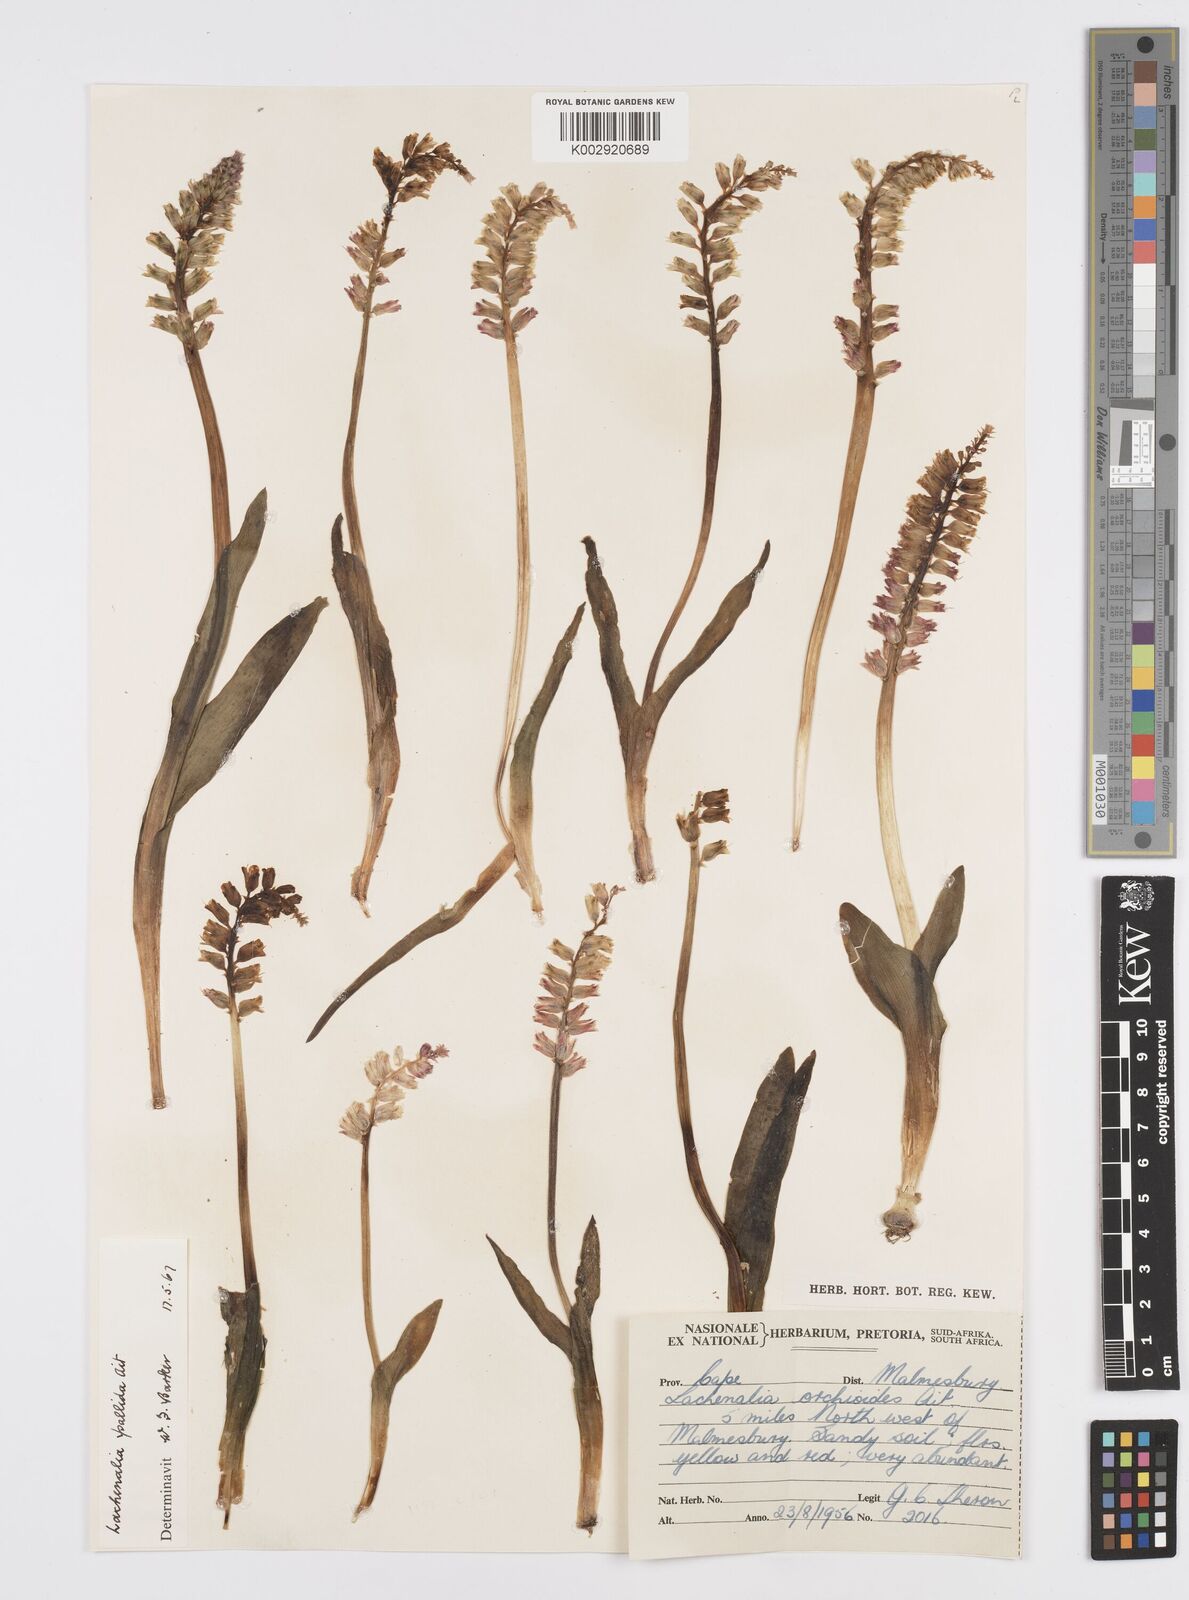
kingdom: Plantae
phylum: Tracheophyta
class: Liliopsida
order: Asparagales
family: Asparagaceae
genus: Lachenalia
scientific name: Lachenalia pallida
